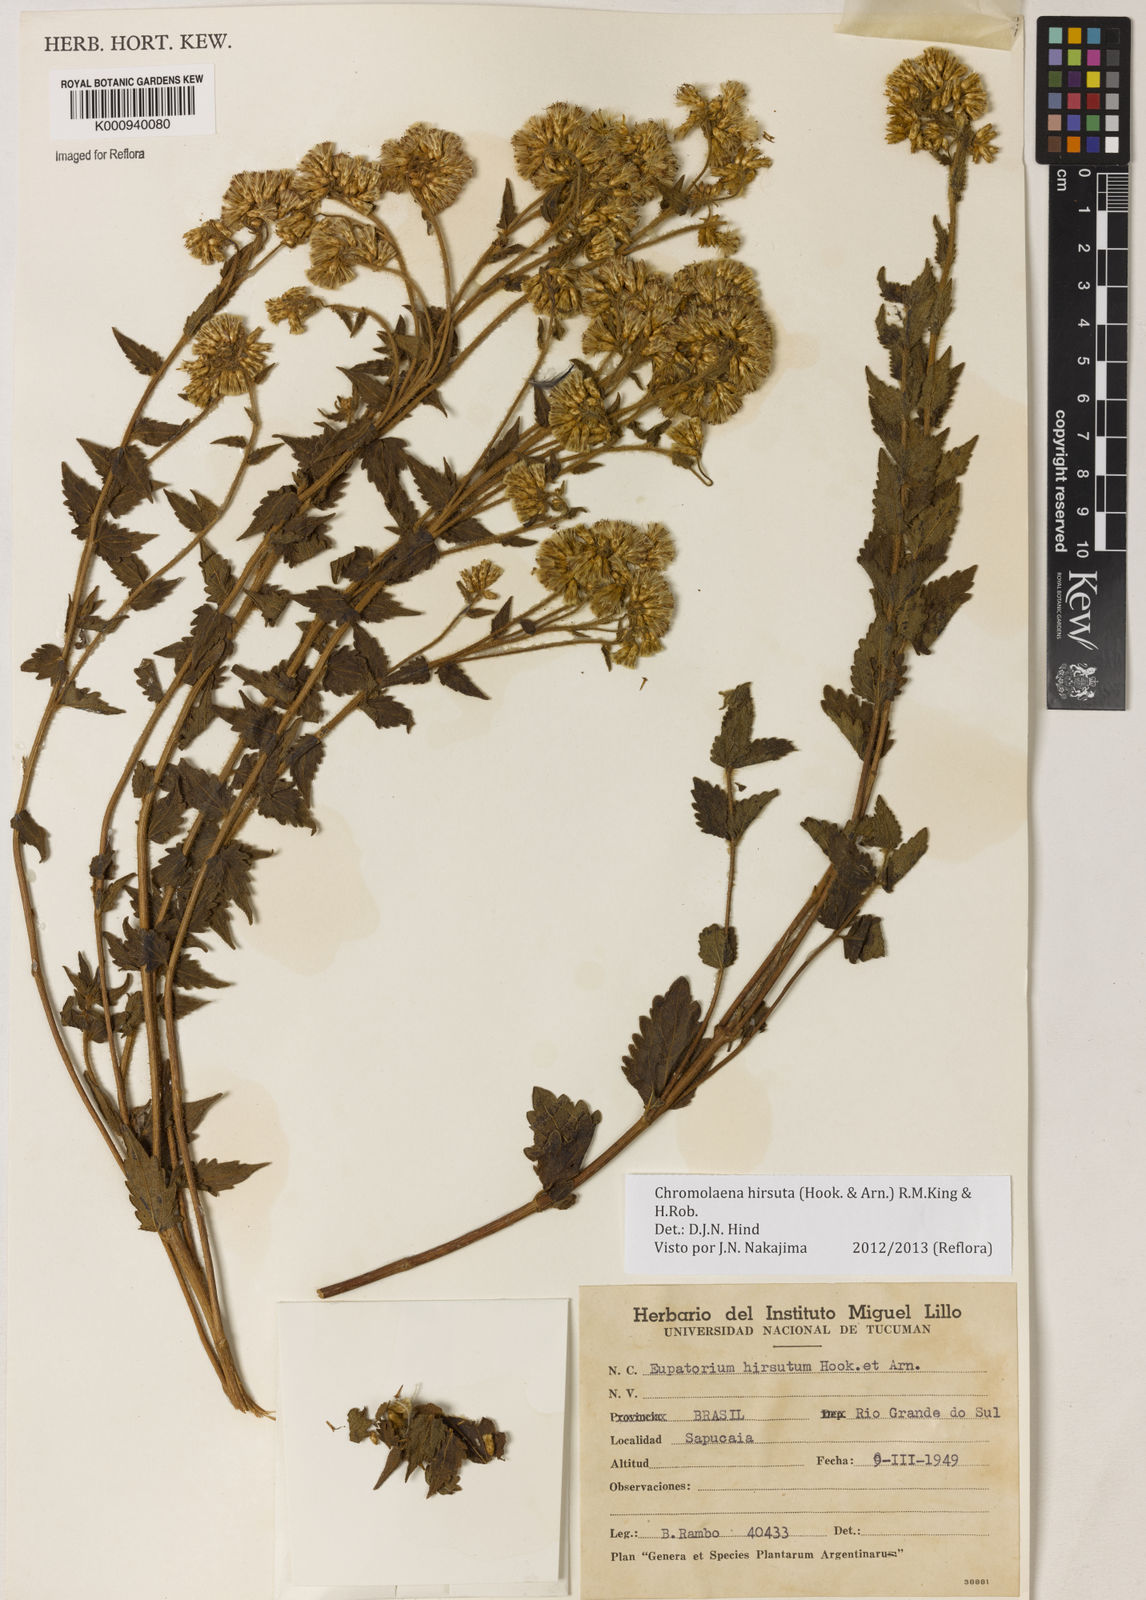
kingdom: Plantae
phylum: Tracheophyta
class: Magnoliopsida
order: Asterales
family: Asteraceae
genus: Chromolaena
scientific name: Chromolaena hirsuta
